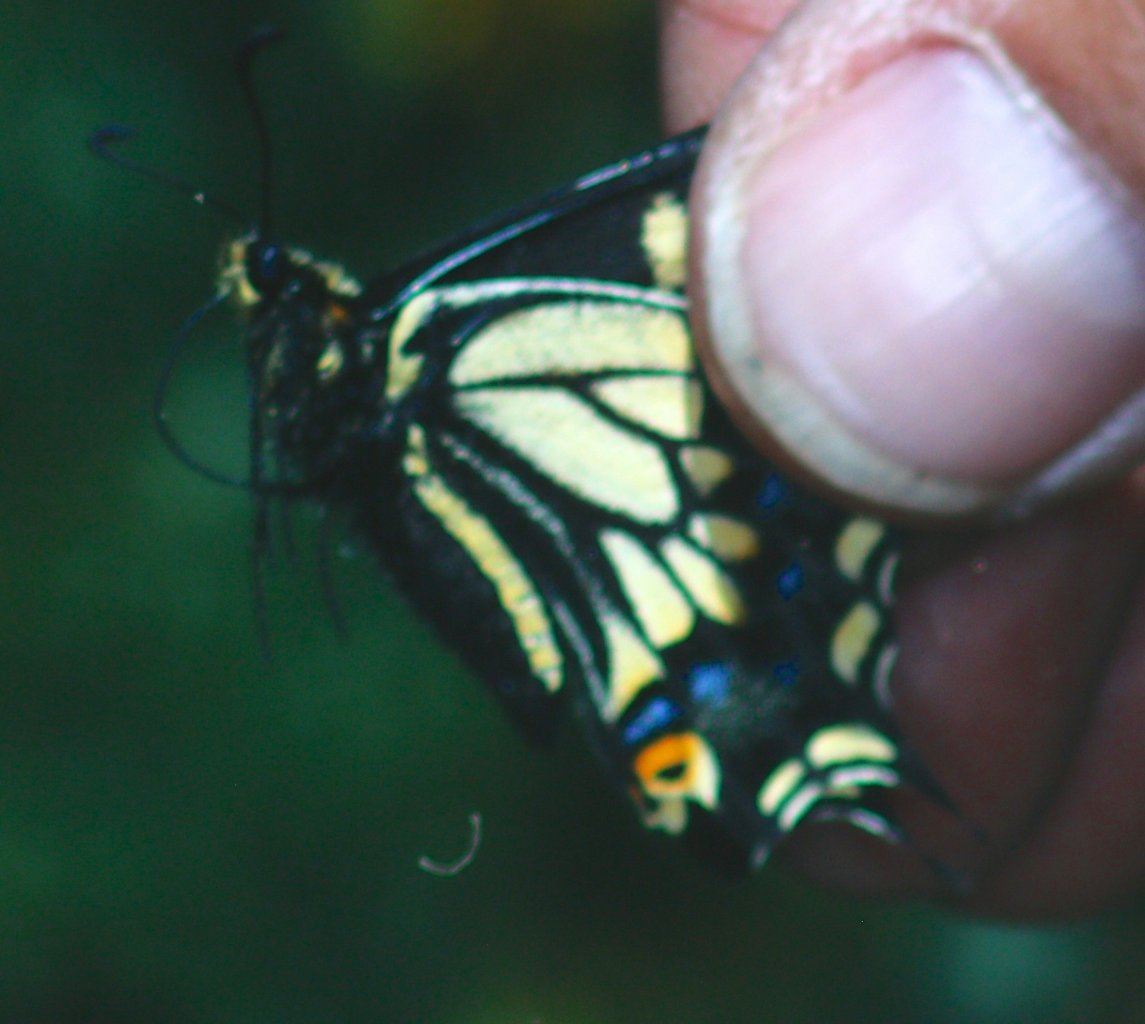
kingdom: Animalia
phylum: Arthropoda
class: Insecta
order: Lepidoptera
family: Papilionidae
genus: Papilio
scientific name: Papilio zelicaon
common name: Anise Swallowtail
